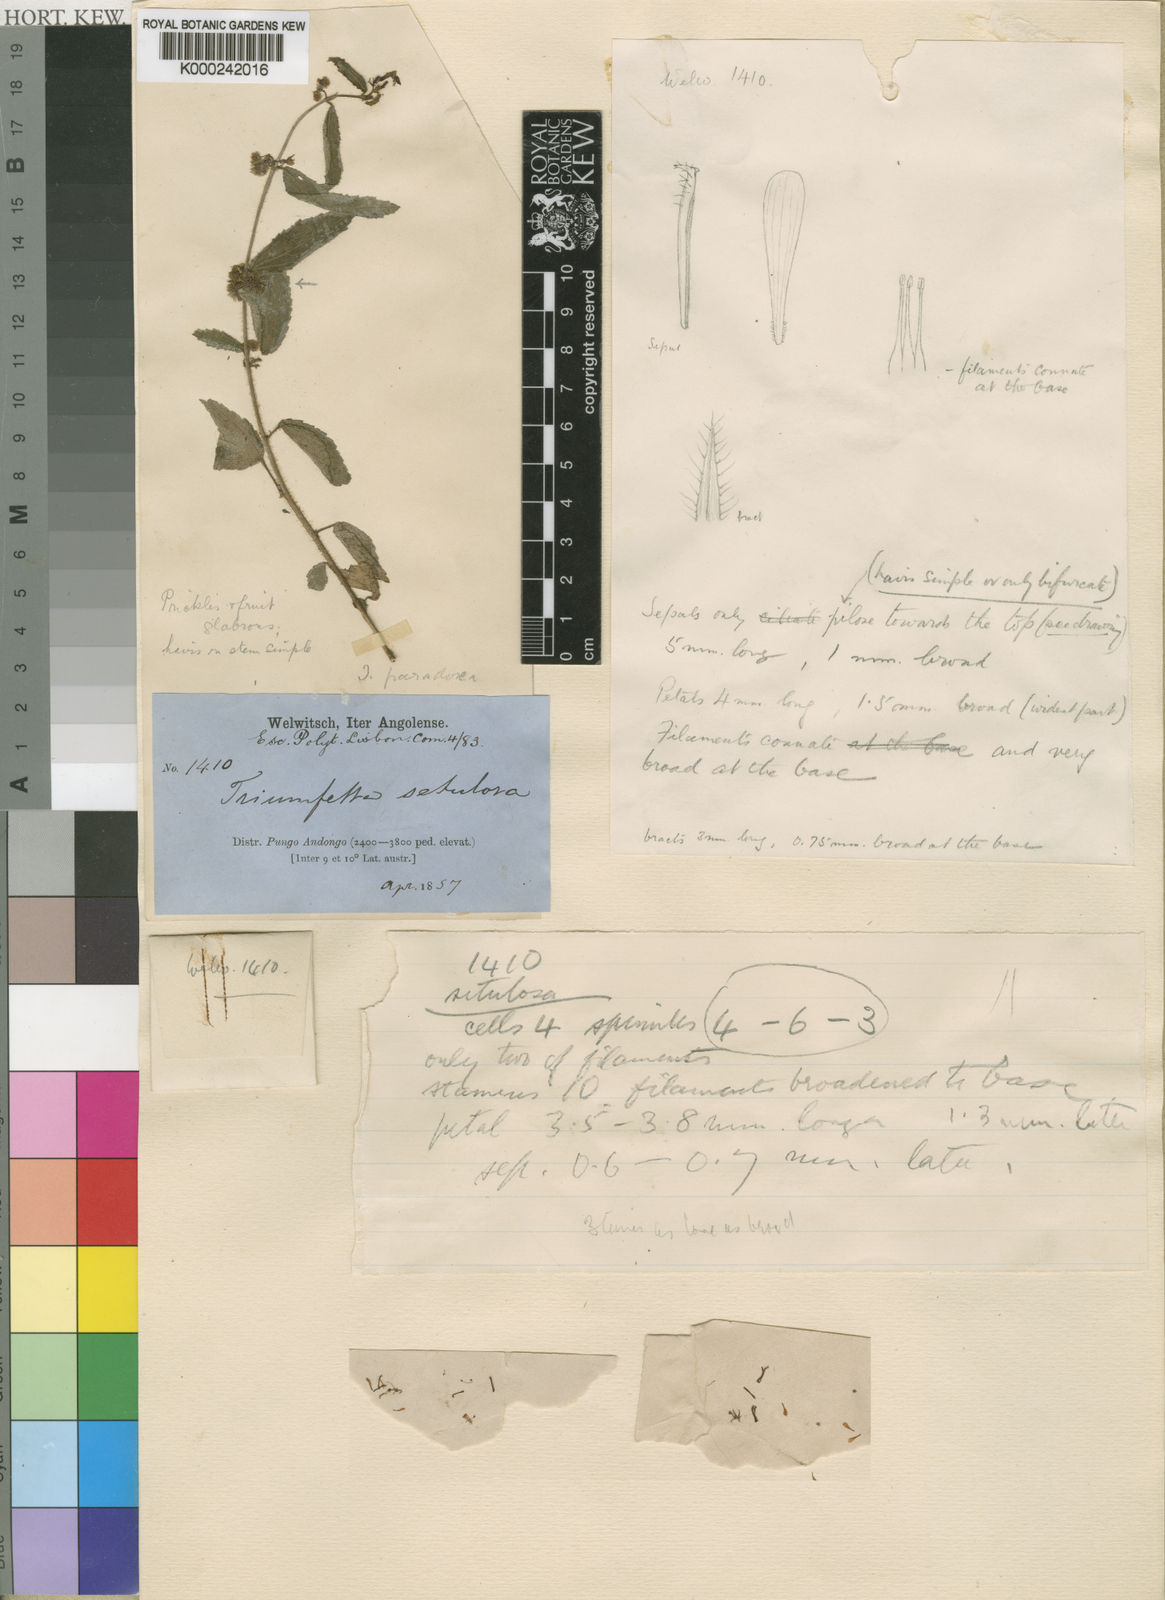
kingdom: Plantae
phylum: Tracheophyta
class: Magnoliopsida
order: Malvales
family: Malvaceae
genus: Triumfetta
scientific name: Triumfetta paradoxa
